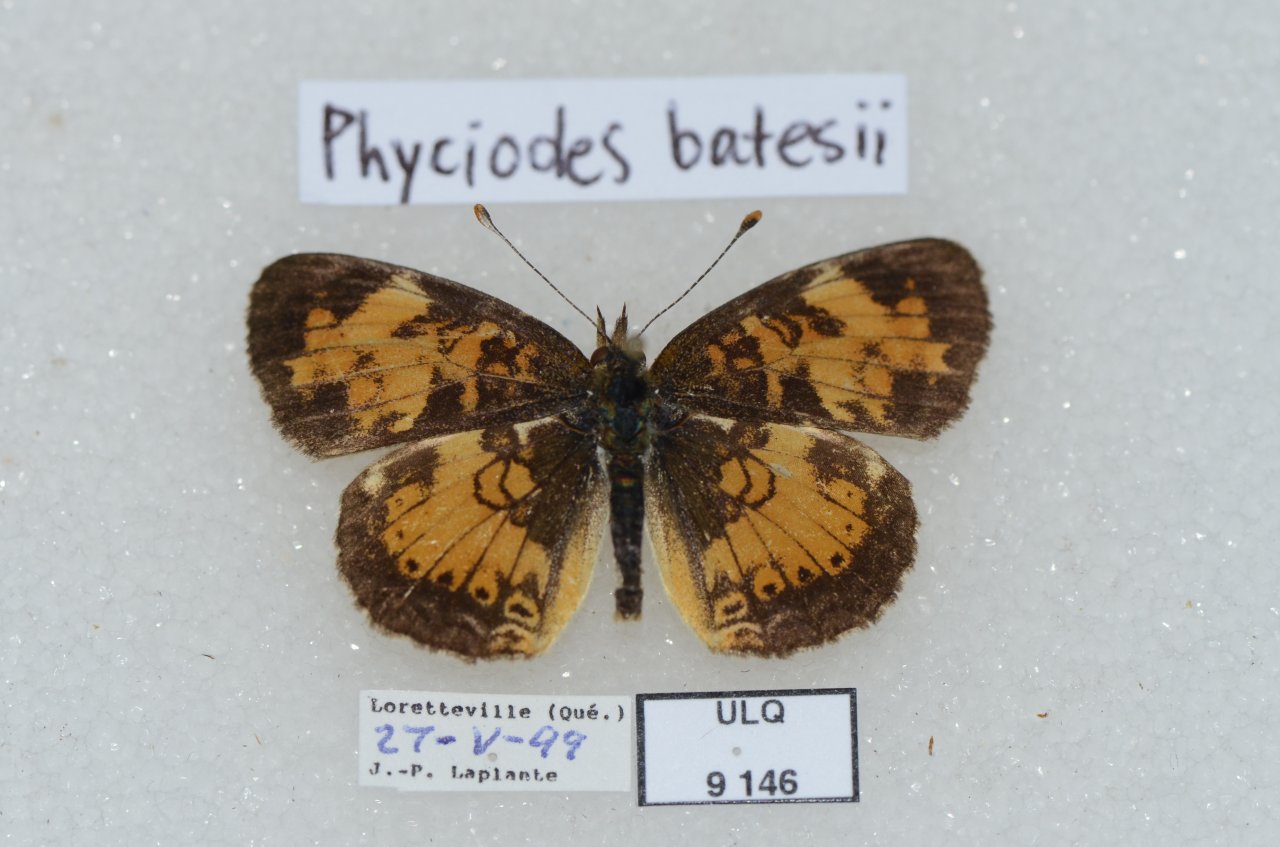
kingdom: Animalia
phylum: Arthropoda
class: Insecta
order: Lepidoptera
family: Nymphalidae
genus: Phyciodes
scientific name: Phyciodes tharos
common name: Northern Crescent
